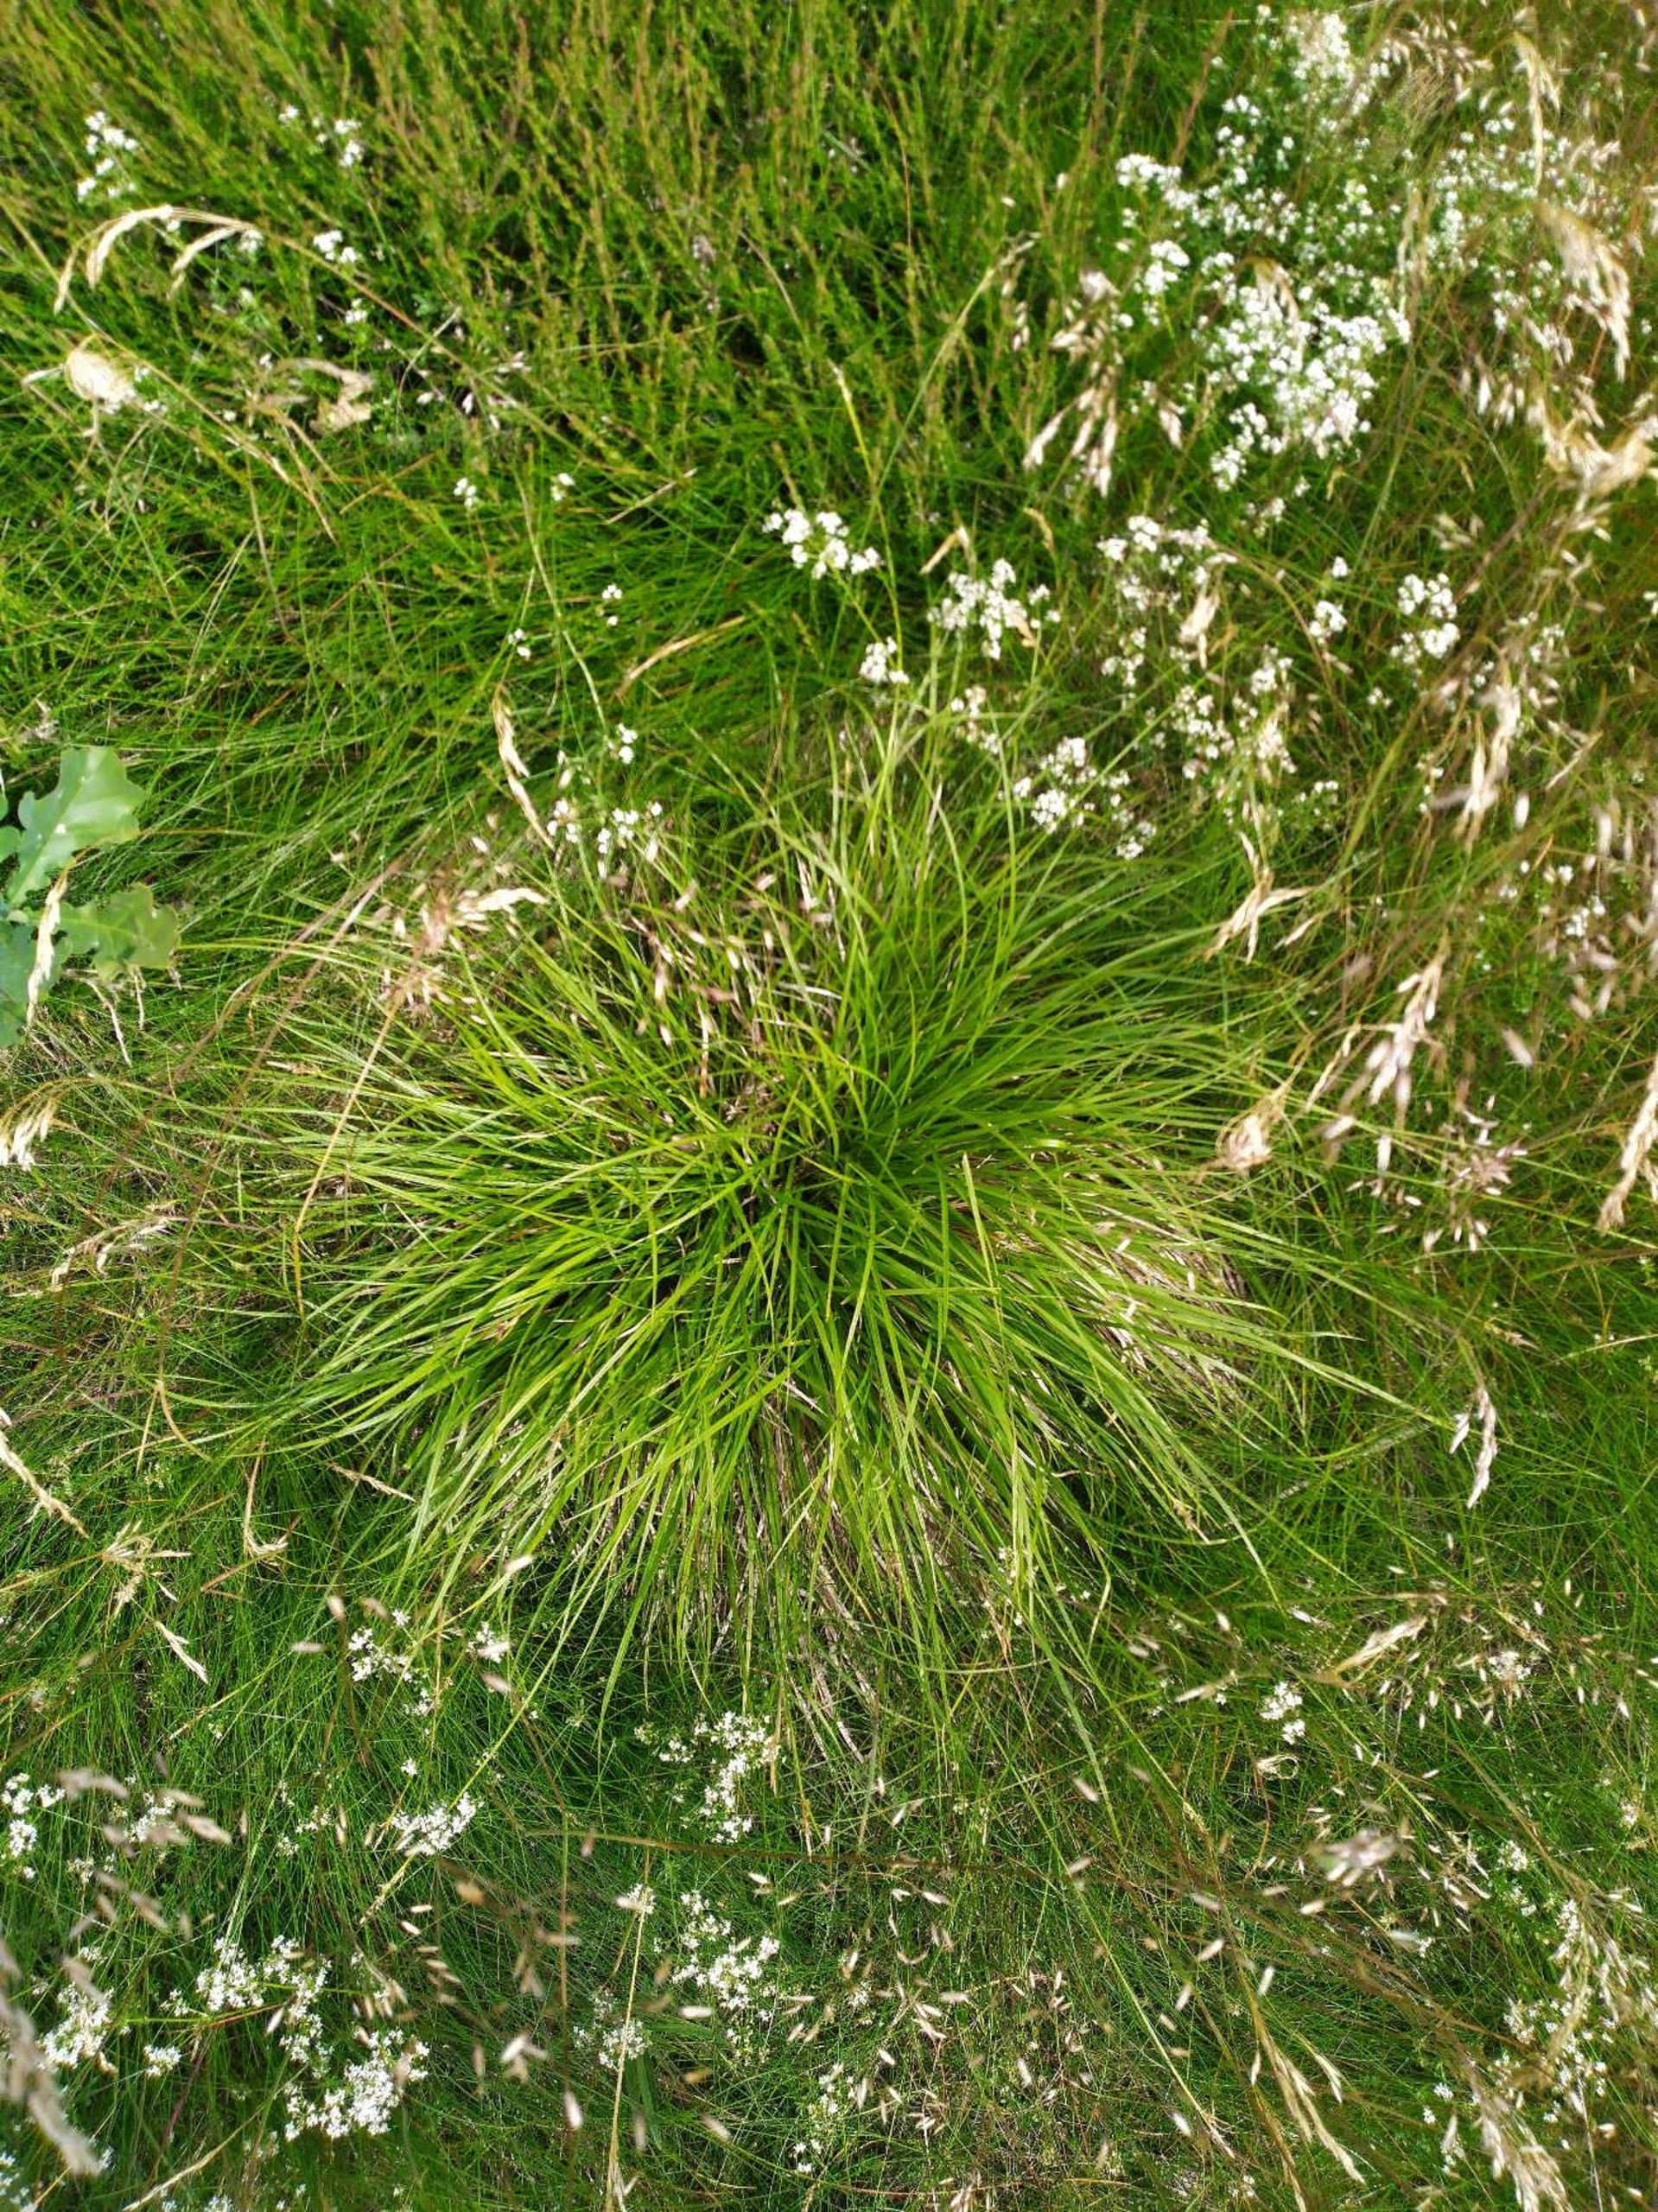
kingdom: Plantae
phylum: Tracheophyta
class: Liliopsida
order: Poales
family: Cyperaceae
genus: Carex
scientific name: Carex pilulifera
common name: Pille-star
